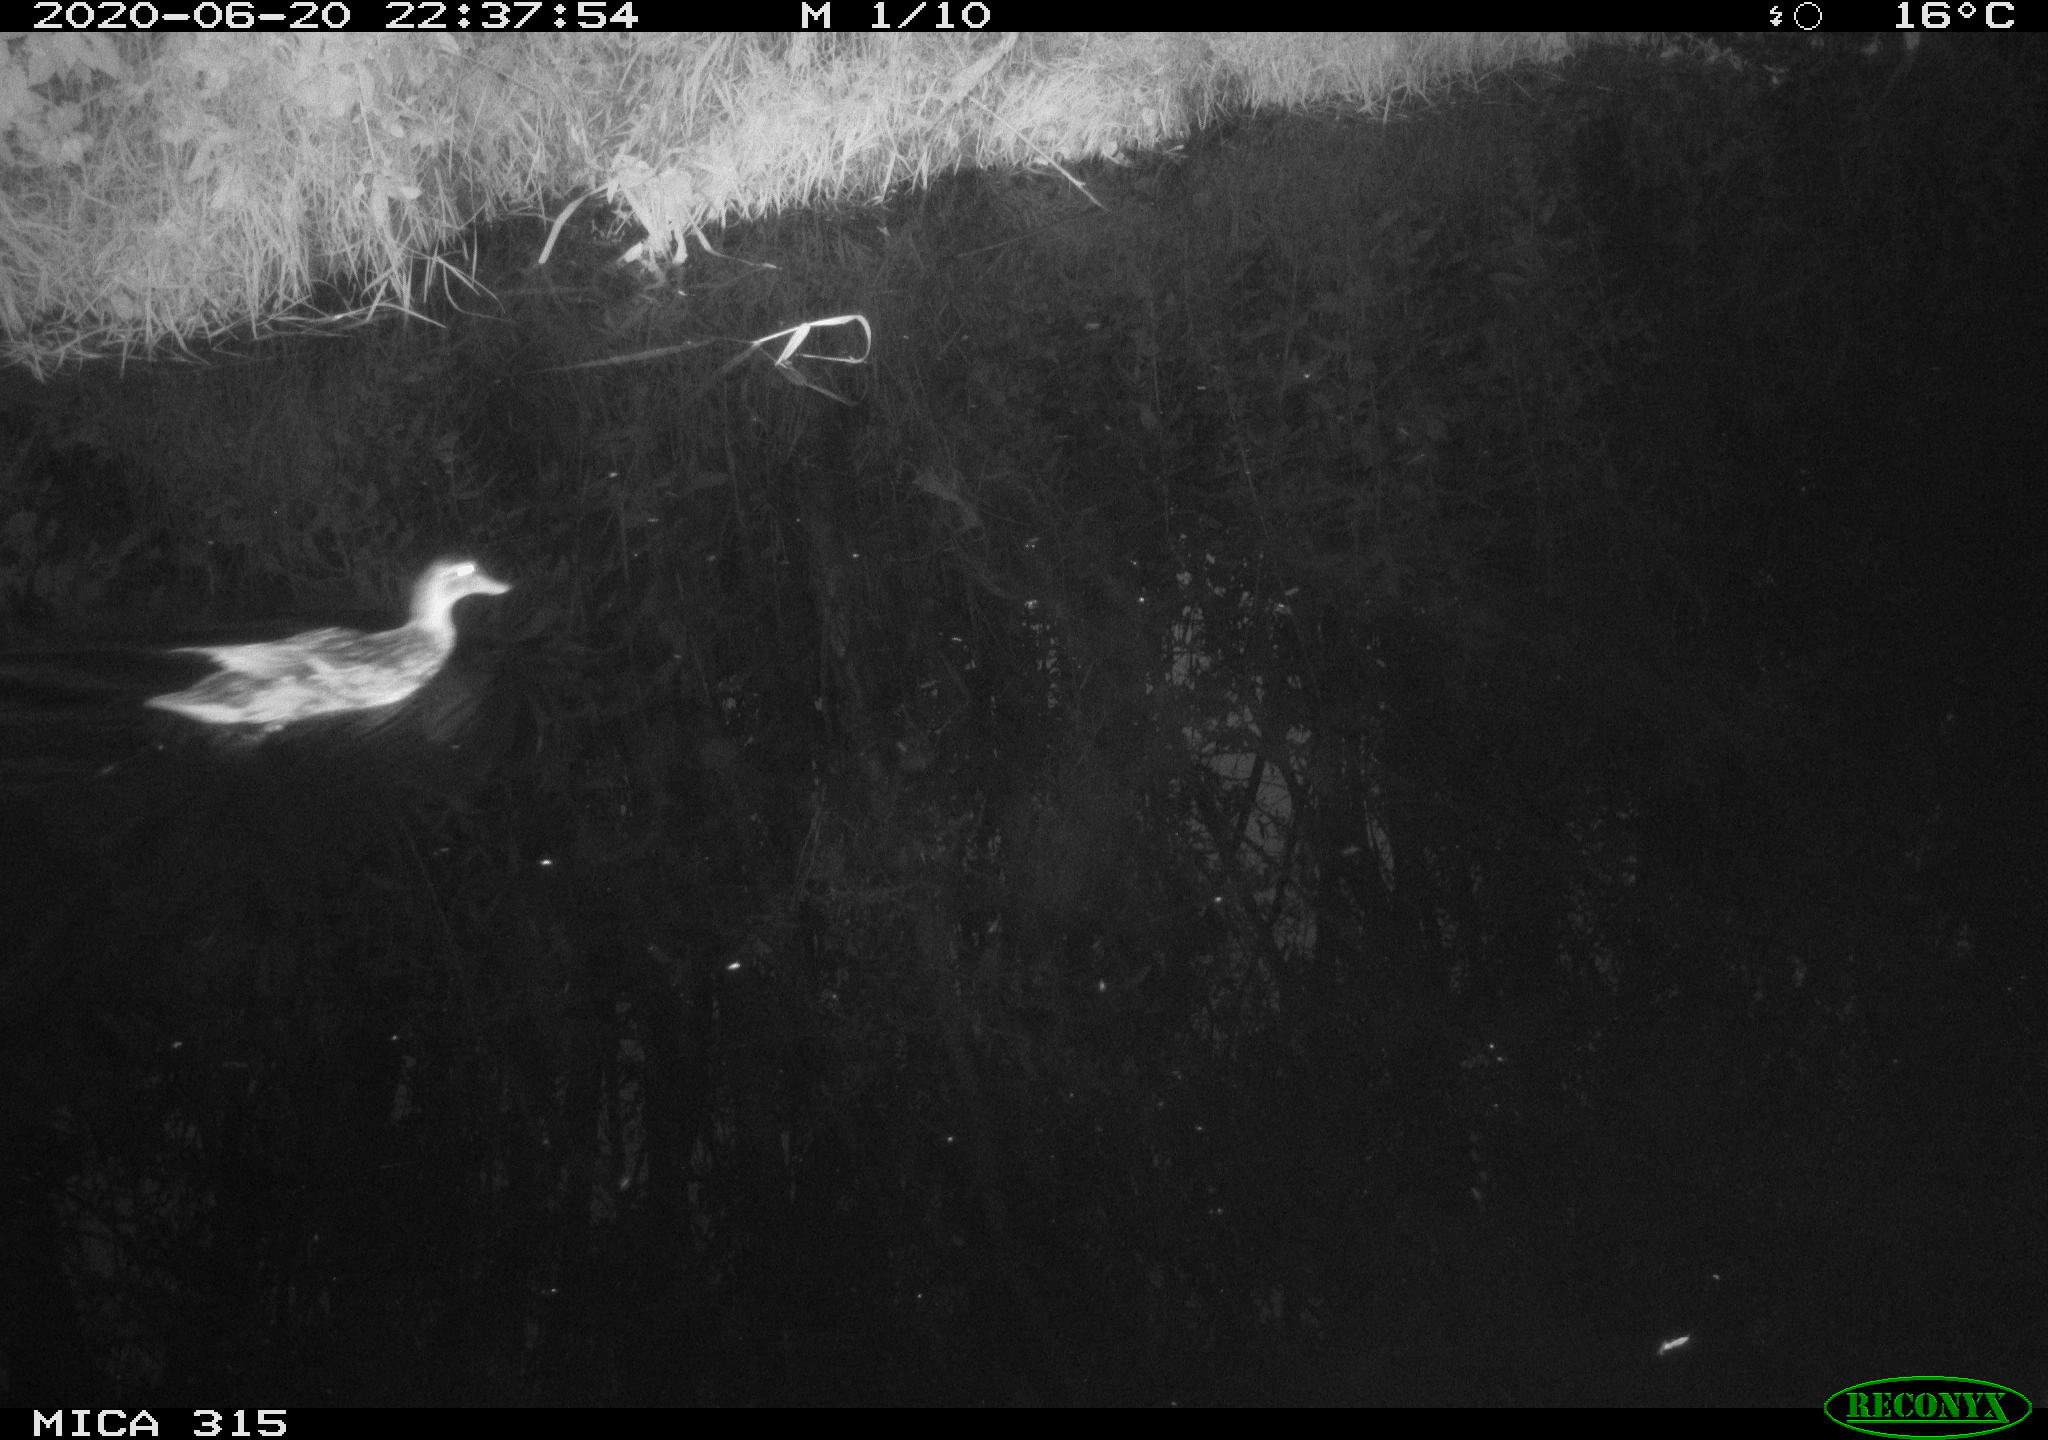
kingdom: Animalia
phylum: Chordata
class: Aves
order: Anseriformes
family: Anatidae
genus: Anas
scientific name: Anas platyrhynchos
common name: Mallard
